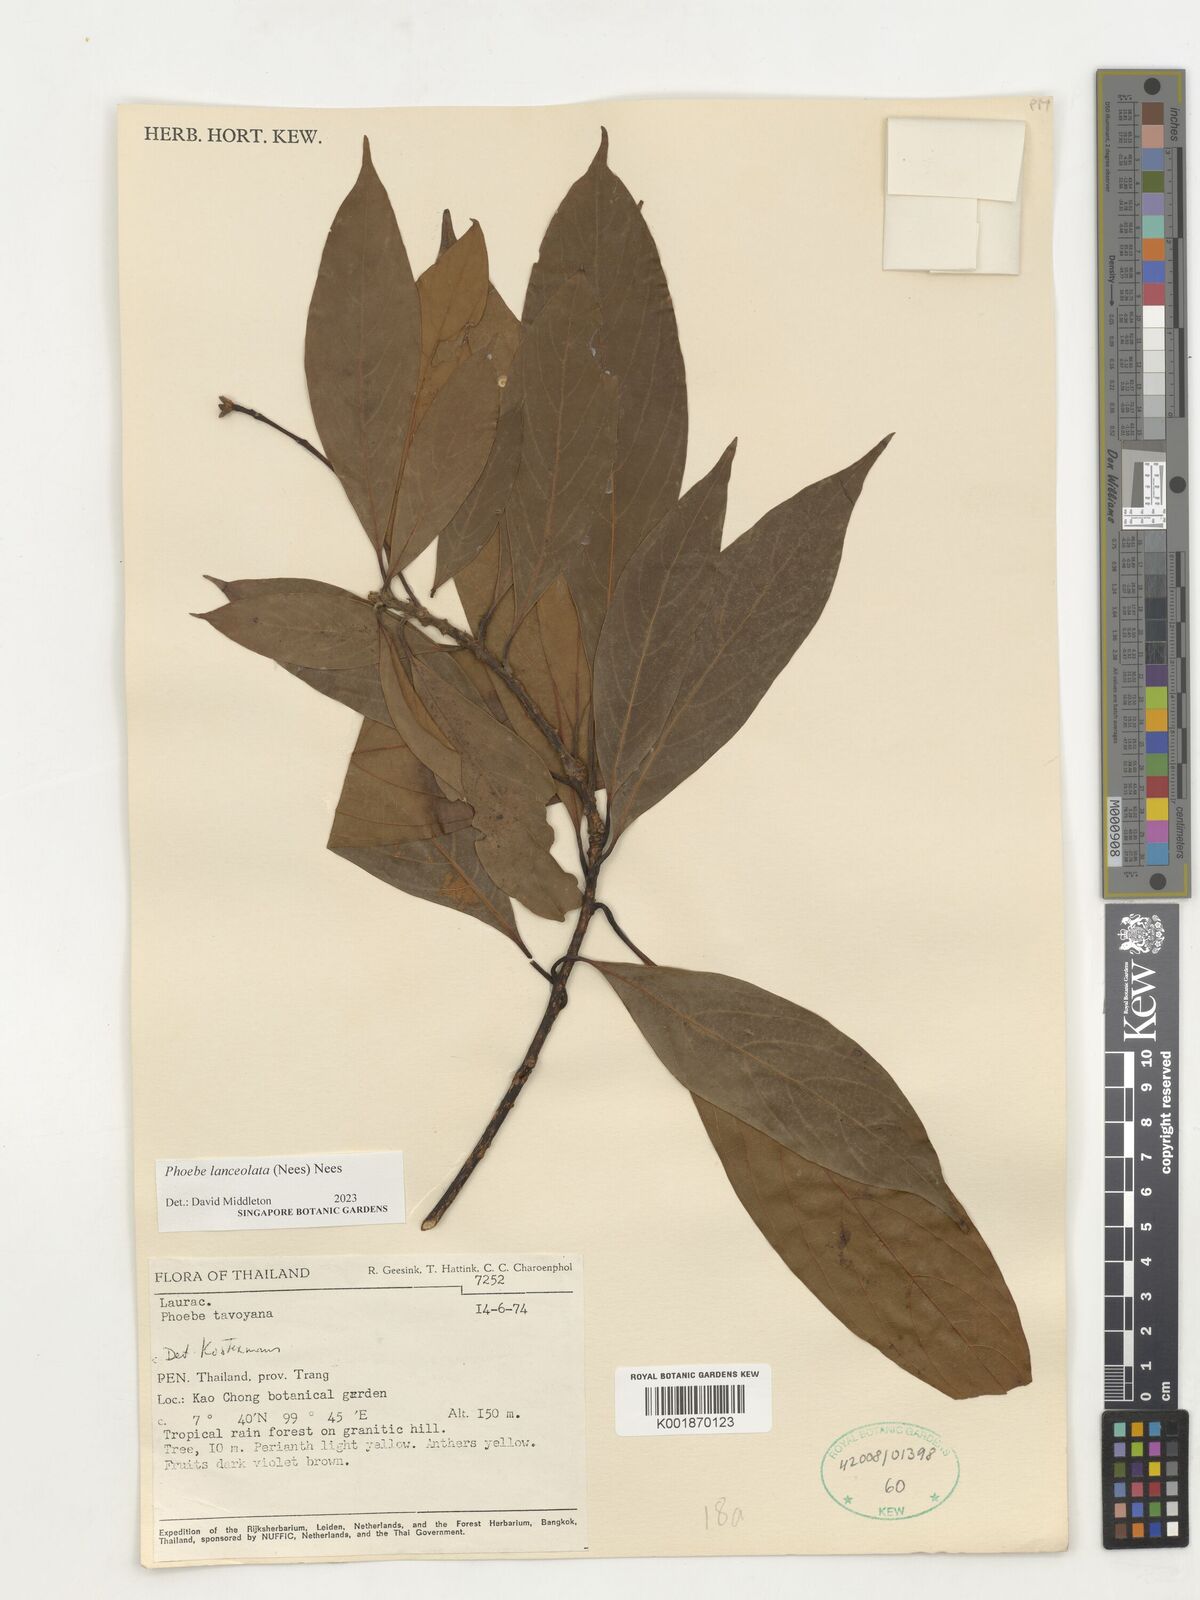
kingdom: Plantae
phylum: Tracheophyta
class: Magnoliopsida
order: Laurales
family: Lauraceae
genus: Phoebe
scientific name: Phoebe lanceolata
